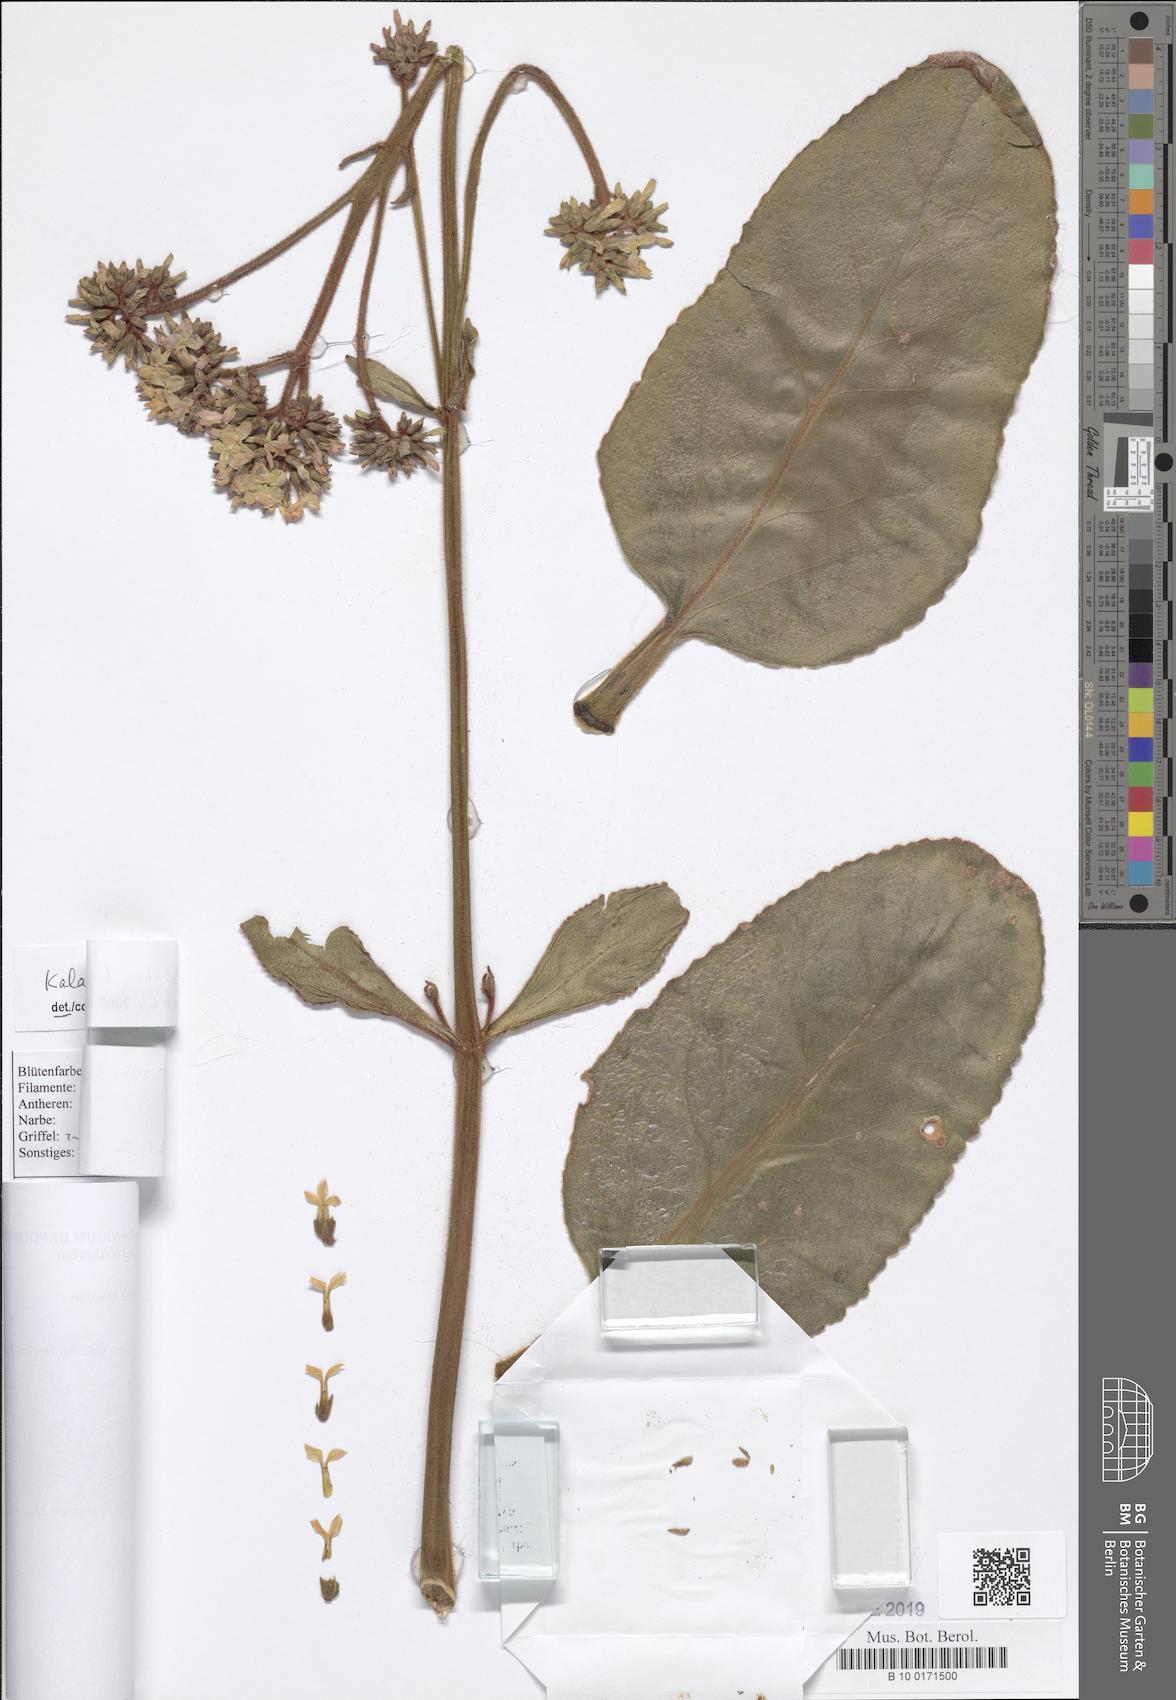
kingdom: Plantae
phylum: Tracheophyta
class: Magnoliopsida
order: Saxifragales
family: Crassulaceae
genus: Kalanchoe
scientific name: Kalanchoe lateritia
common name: Kalanchoe
